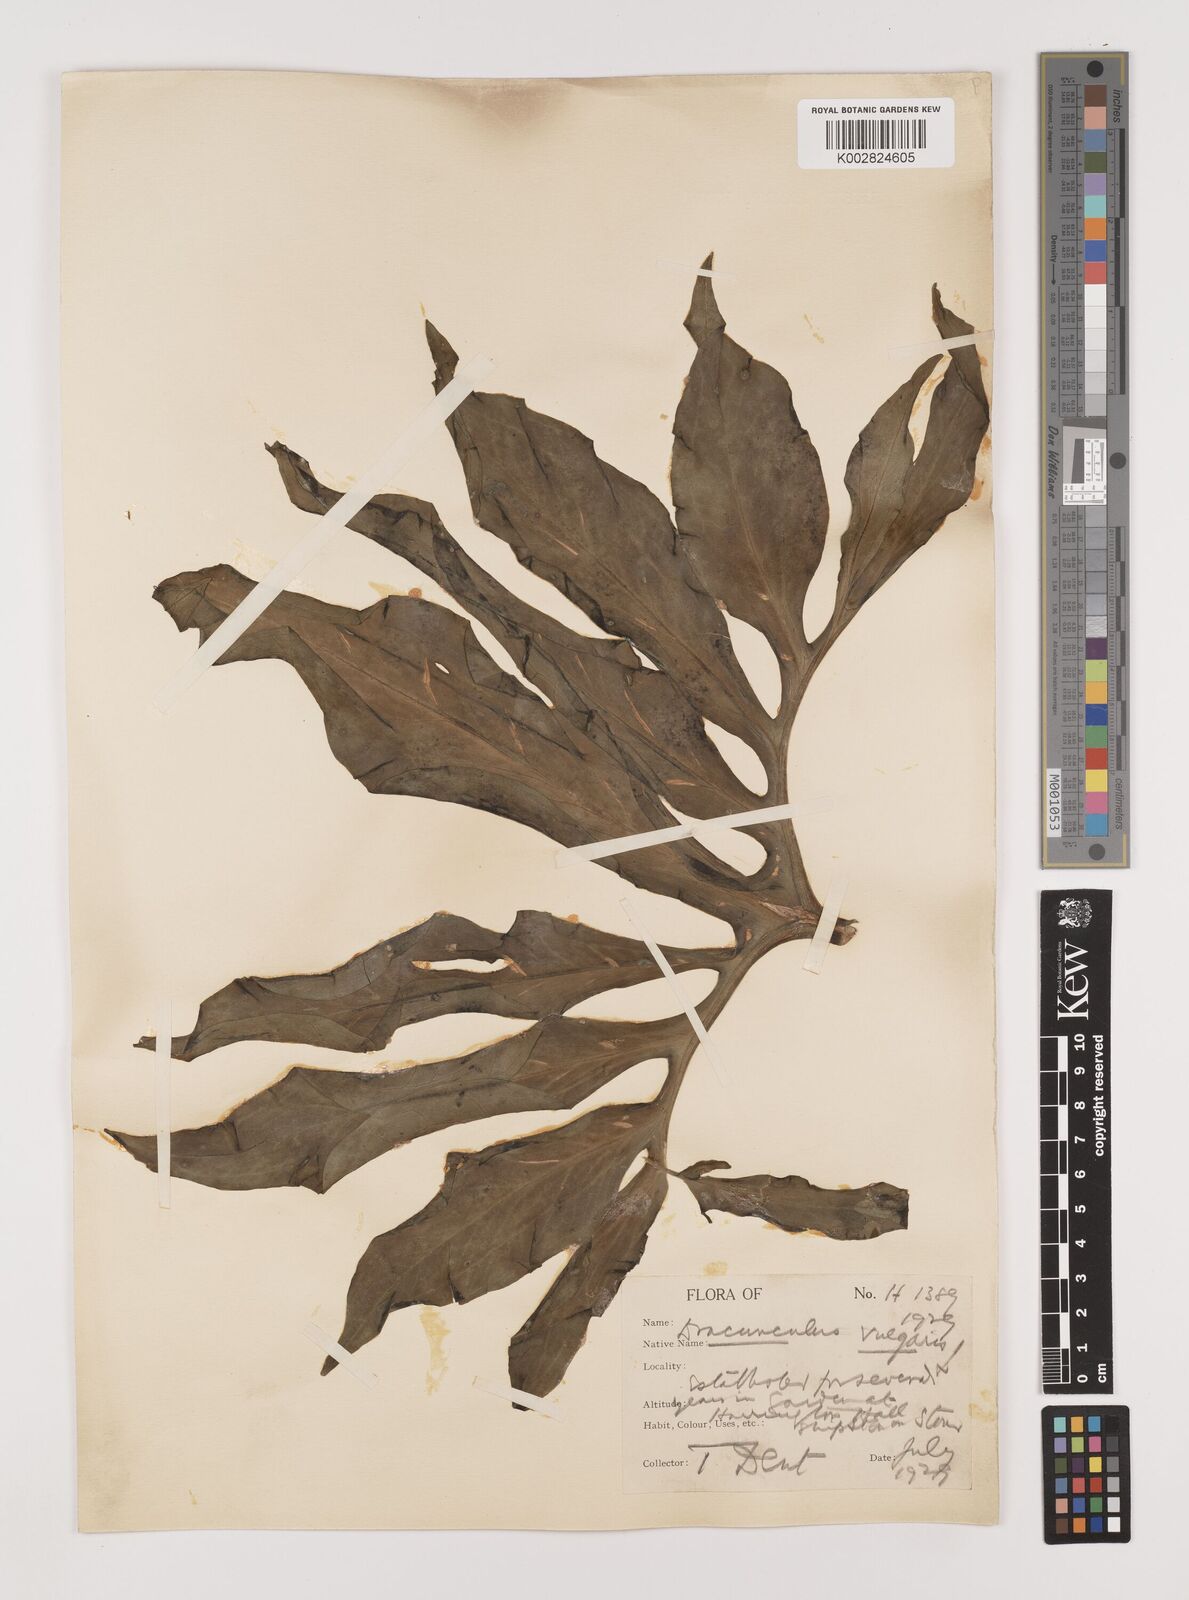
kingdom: Plantae
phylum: Tracheophyta
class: Liliopsida
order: Alismatales
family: Araceae
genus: Dracunculus
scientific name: Dracunculus vulgaris
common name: Dragon arum
